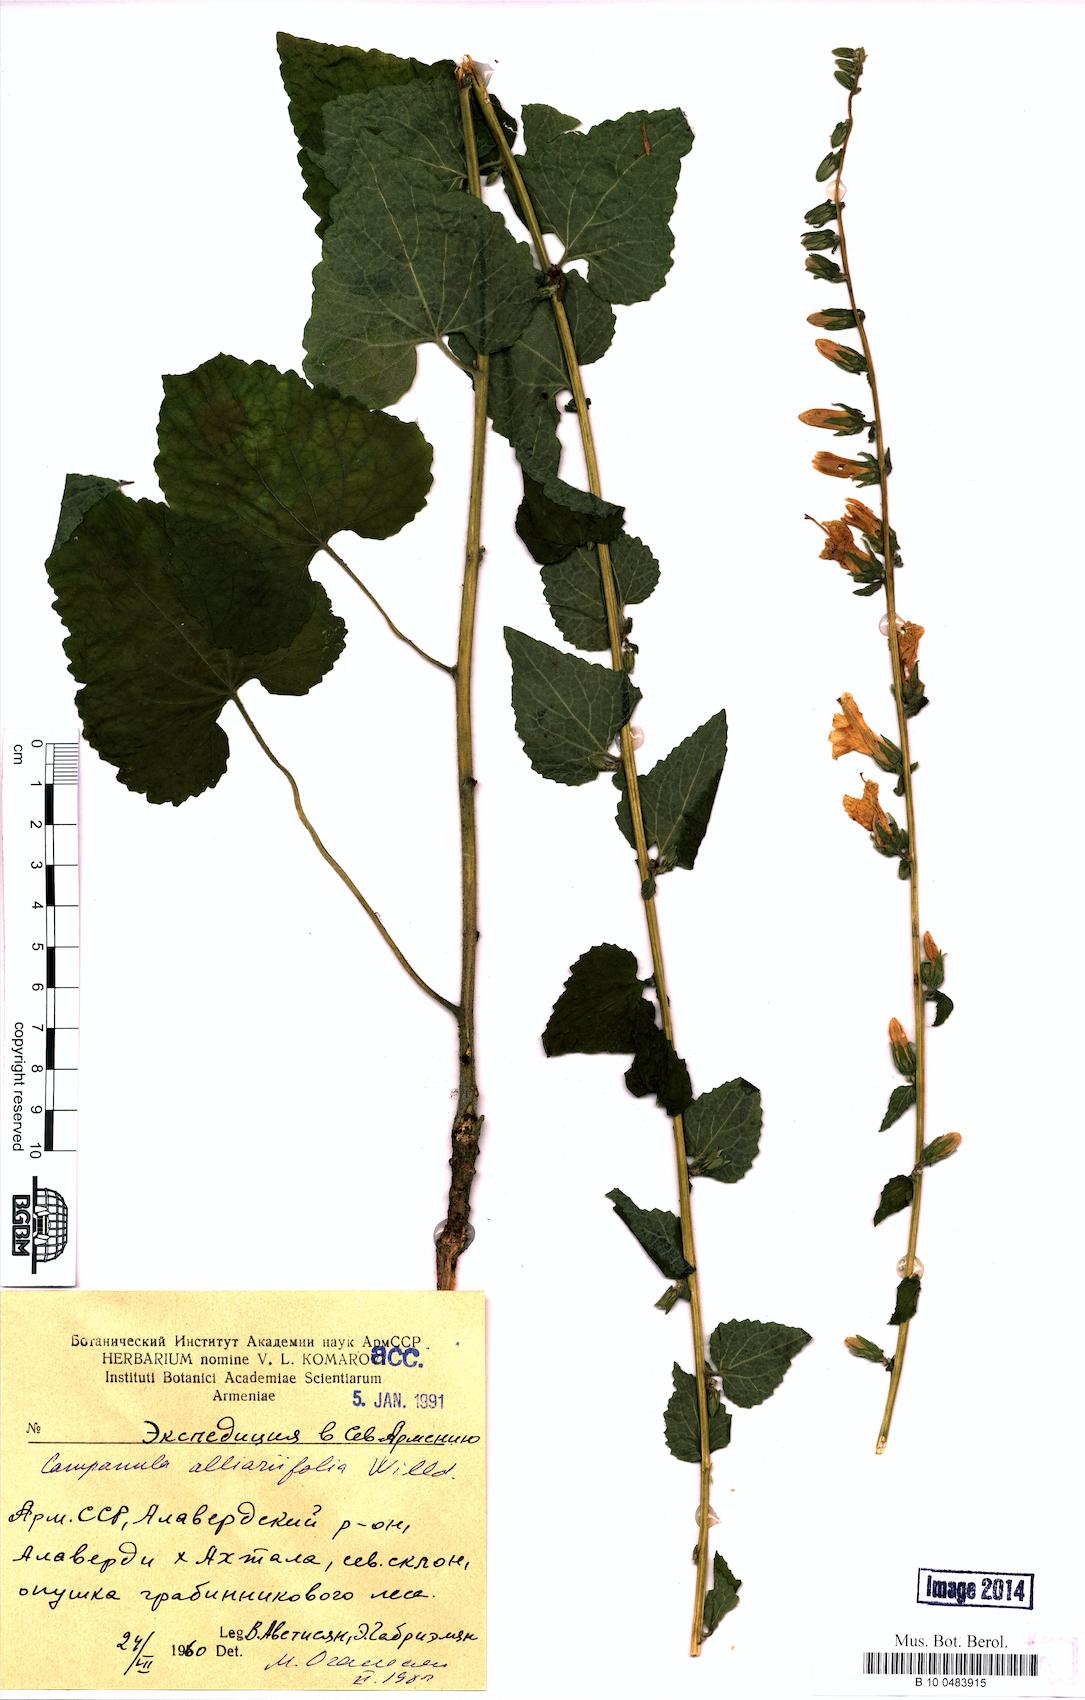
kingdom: Plantae
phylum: Tracheophyta
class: Magnoliopsida
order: Asterales
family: Campanulaceae
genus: Campanula
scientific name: Campanula alliariifolia
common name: Cornish bellflower
